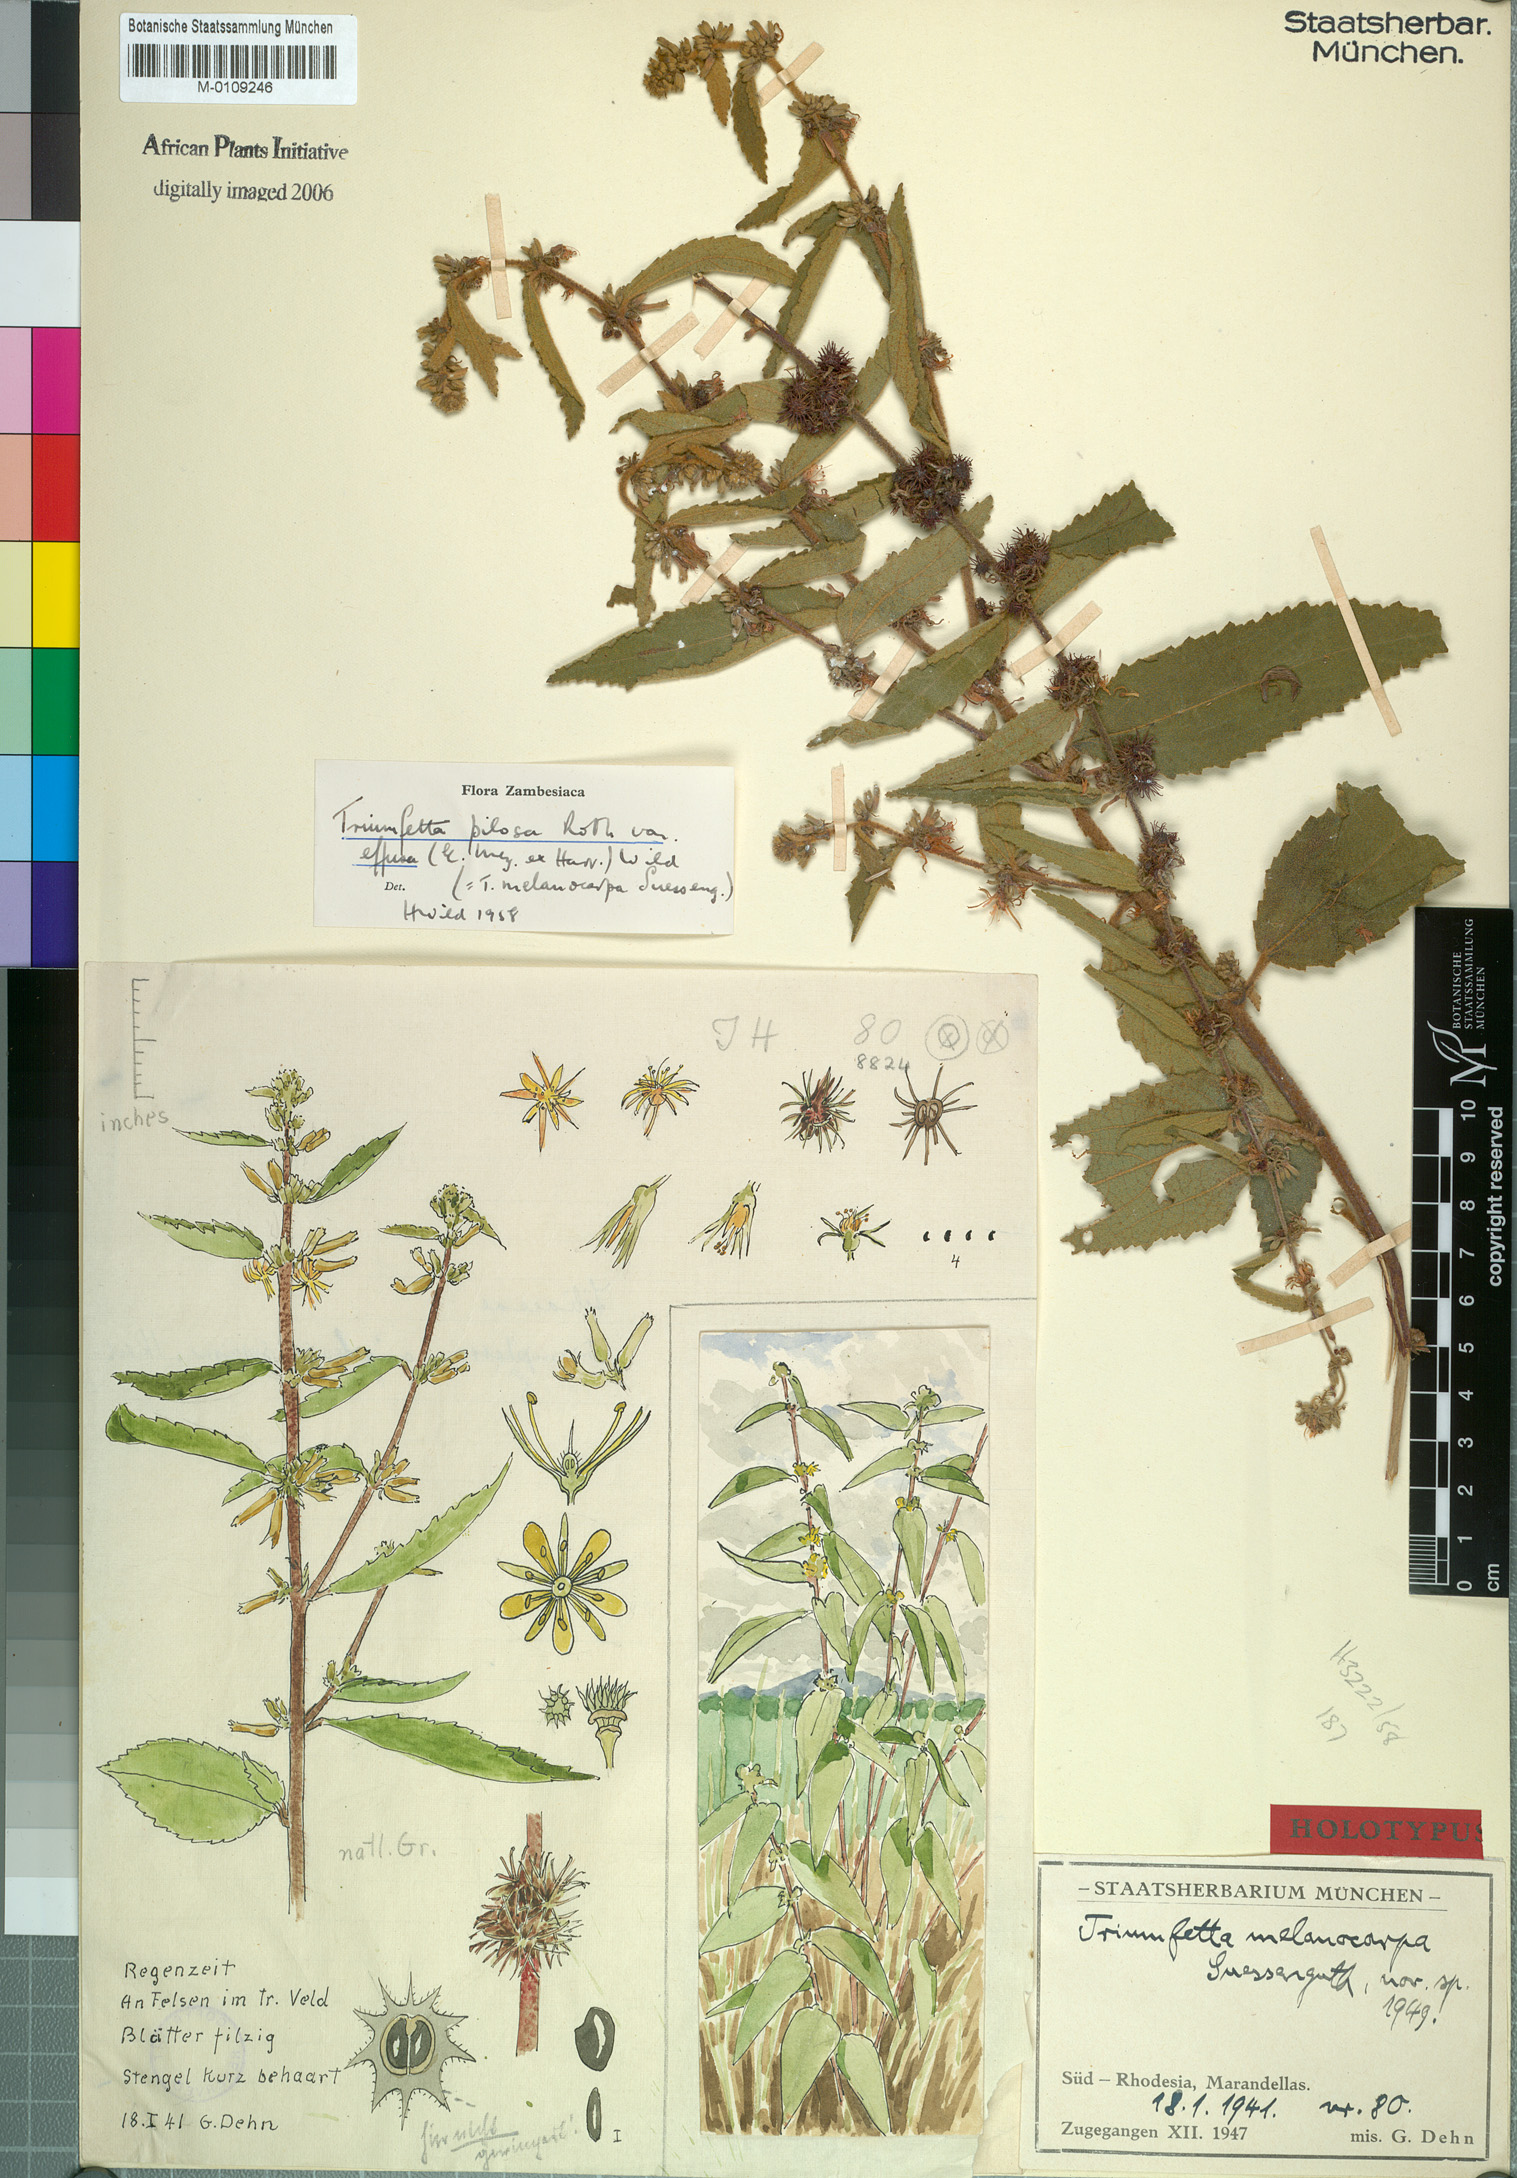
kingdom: Plantae
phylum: Tracheophyta
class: Magnoliopsida
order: Malvales
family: Malvaceae
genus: Triumfetta
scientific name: Triumfetta pilosa
